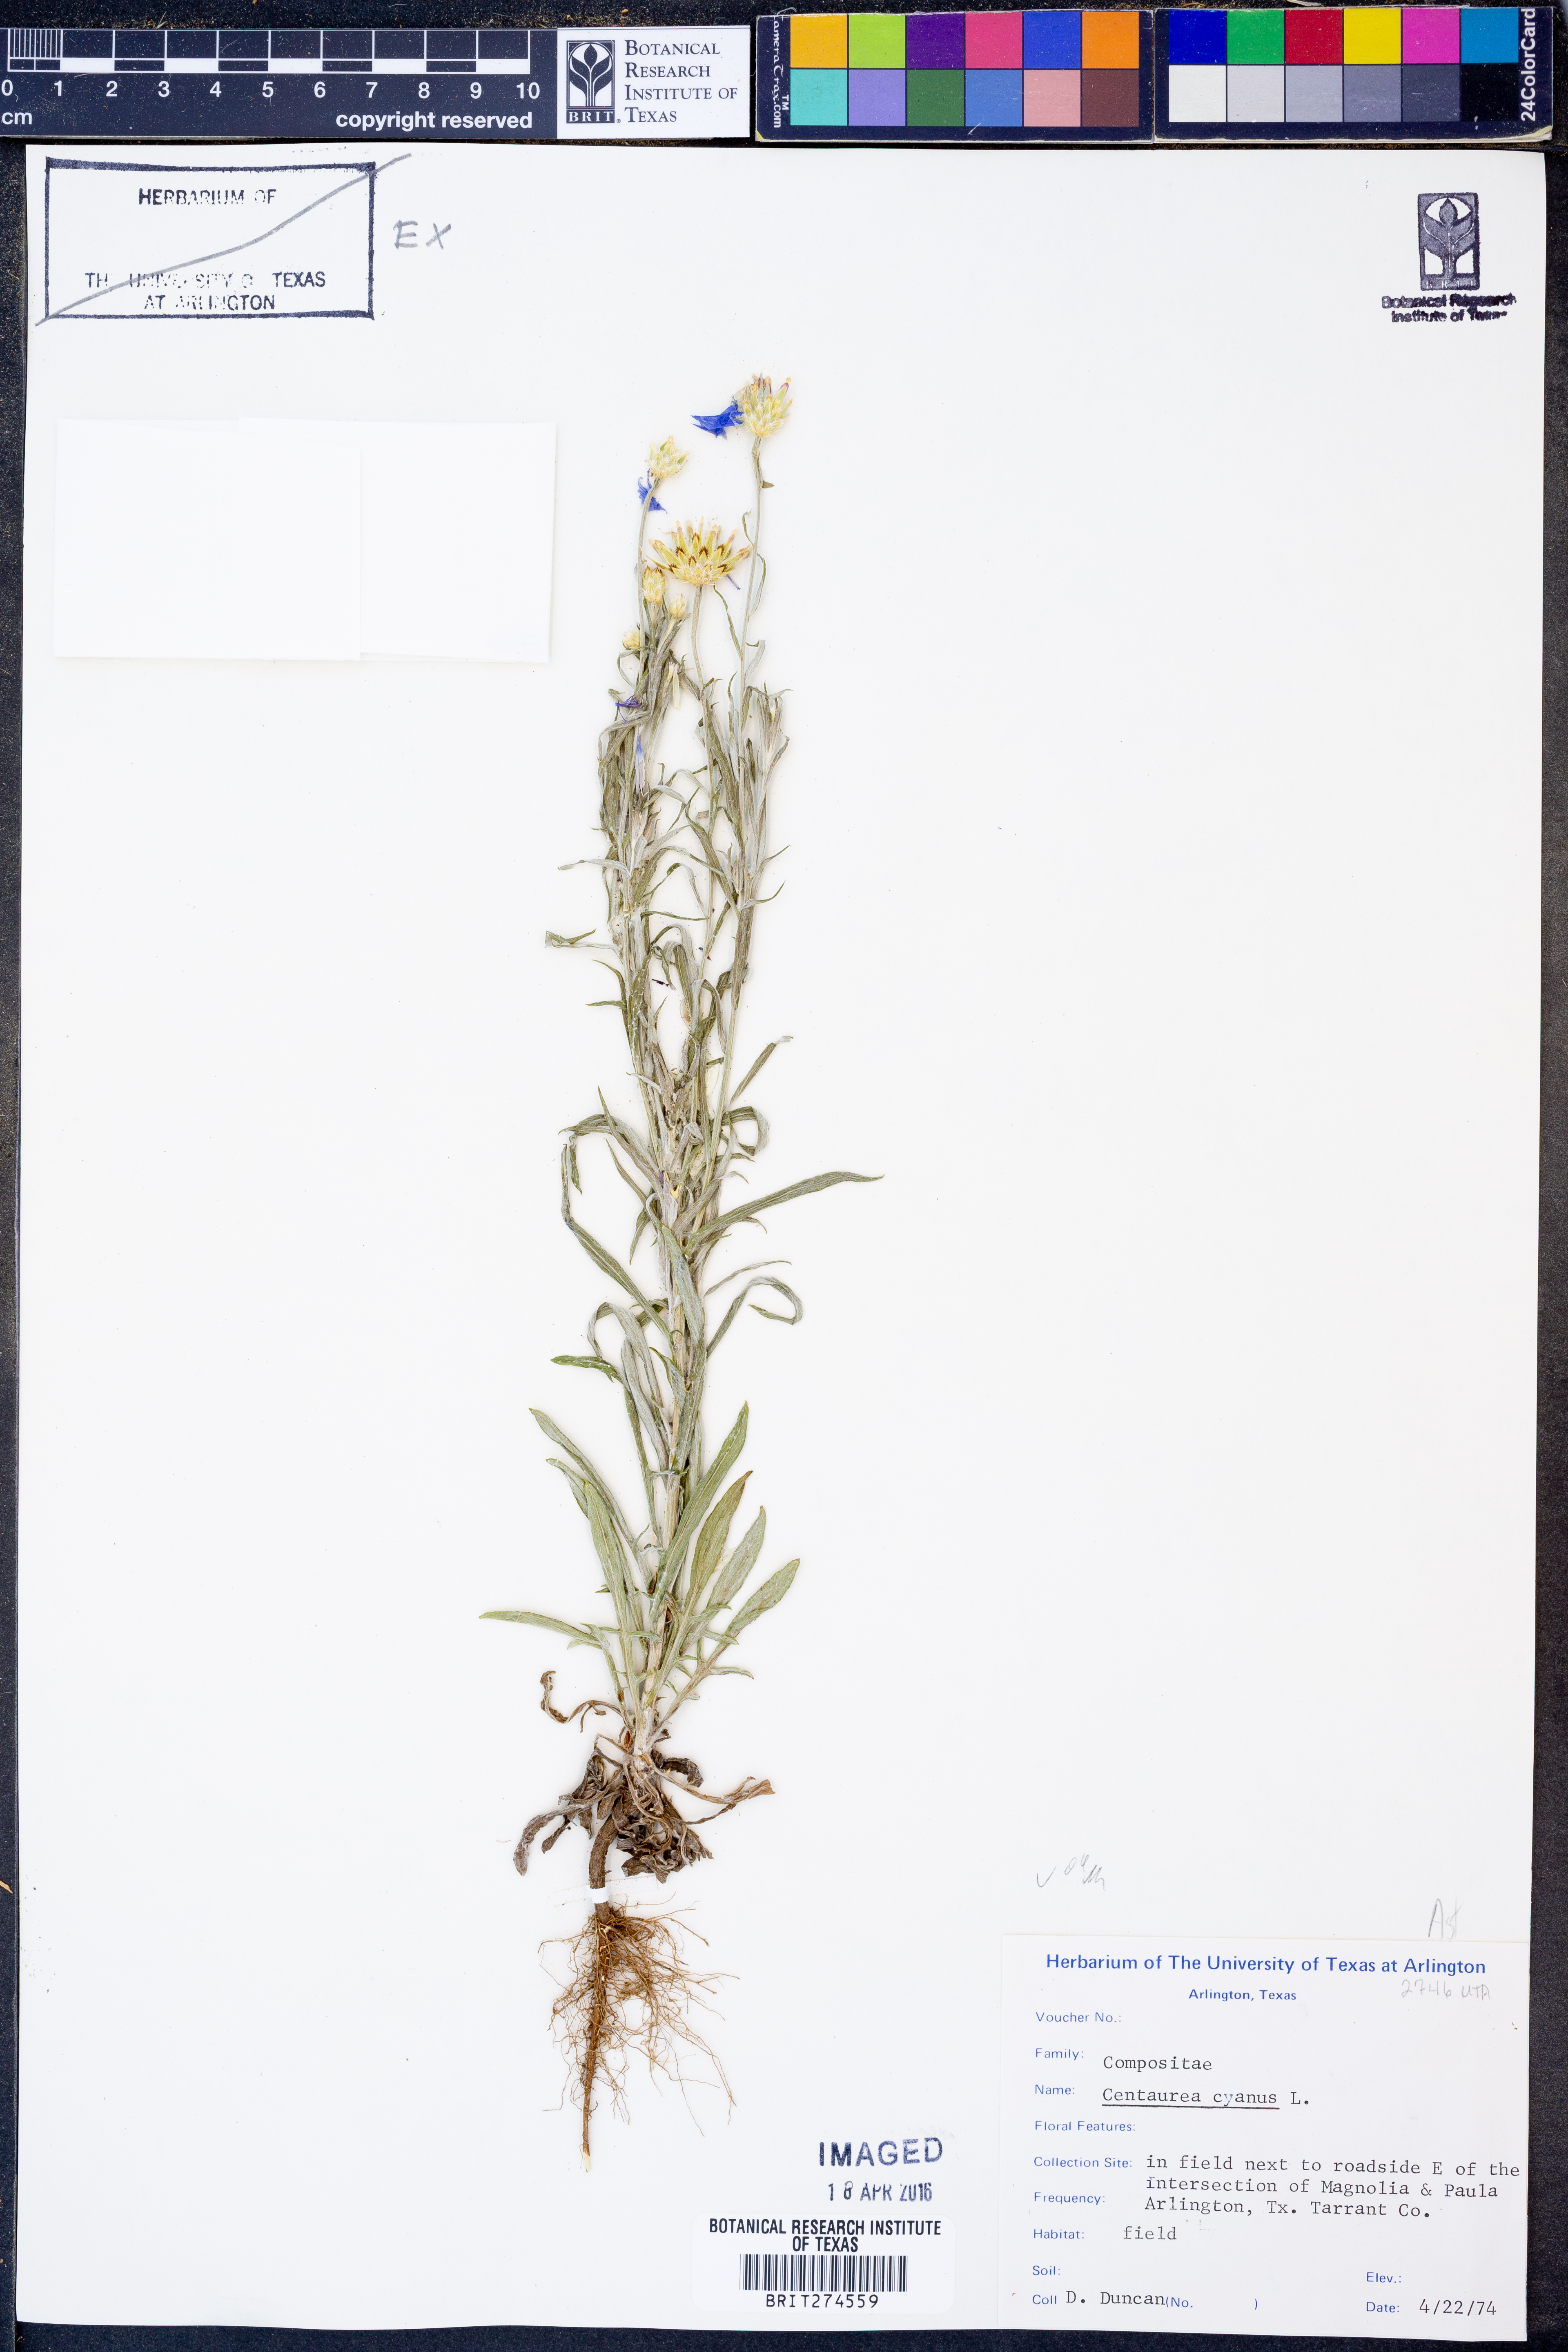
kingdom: Plantae
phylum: Tracheophyta
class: Magnoliopsida
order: Asterales
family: Asteraceae
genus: Centaurea
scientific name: Centaurea cyanus
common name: Cornflower
